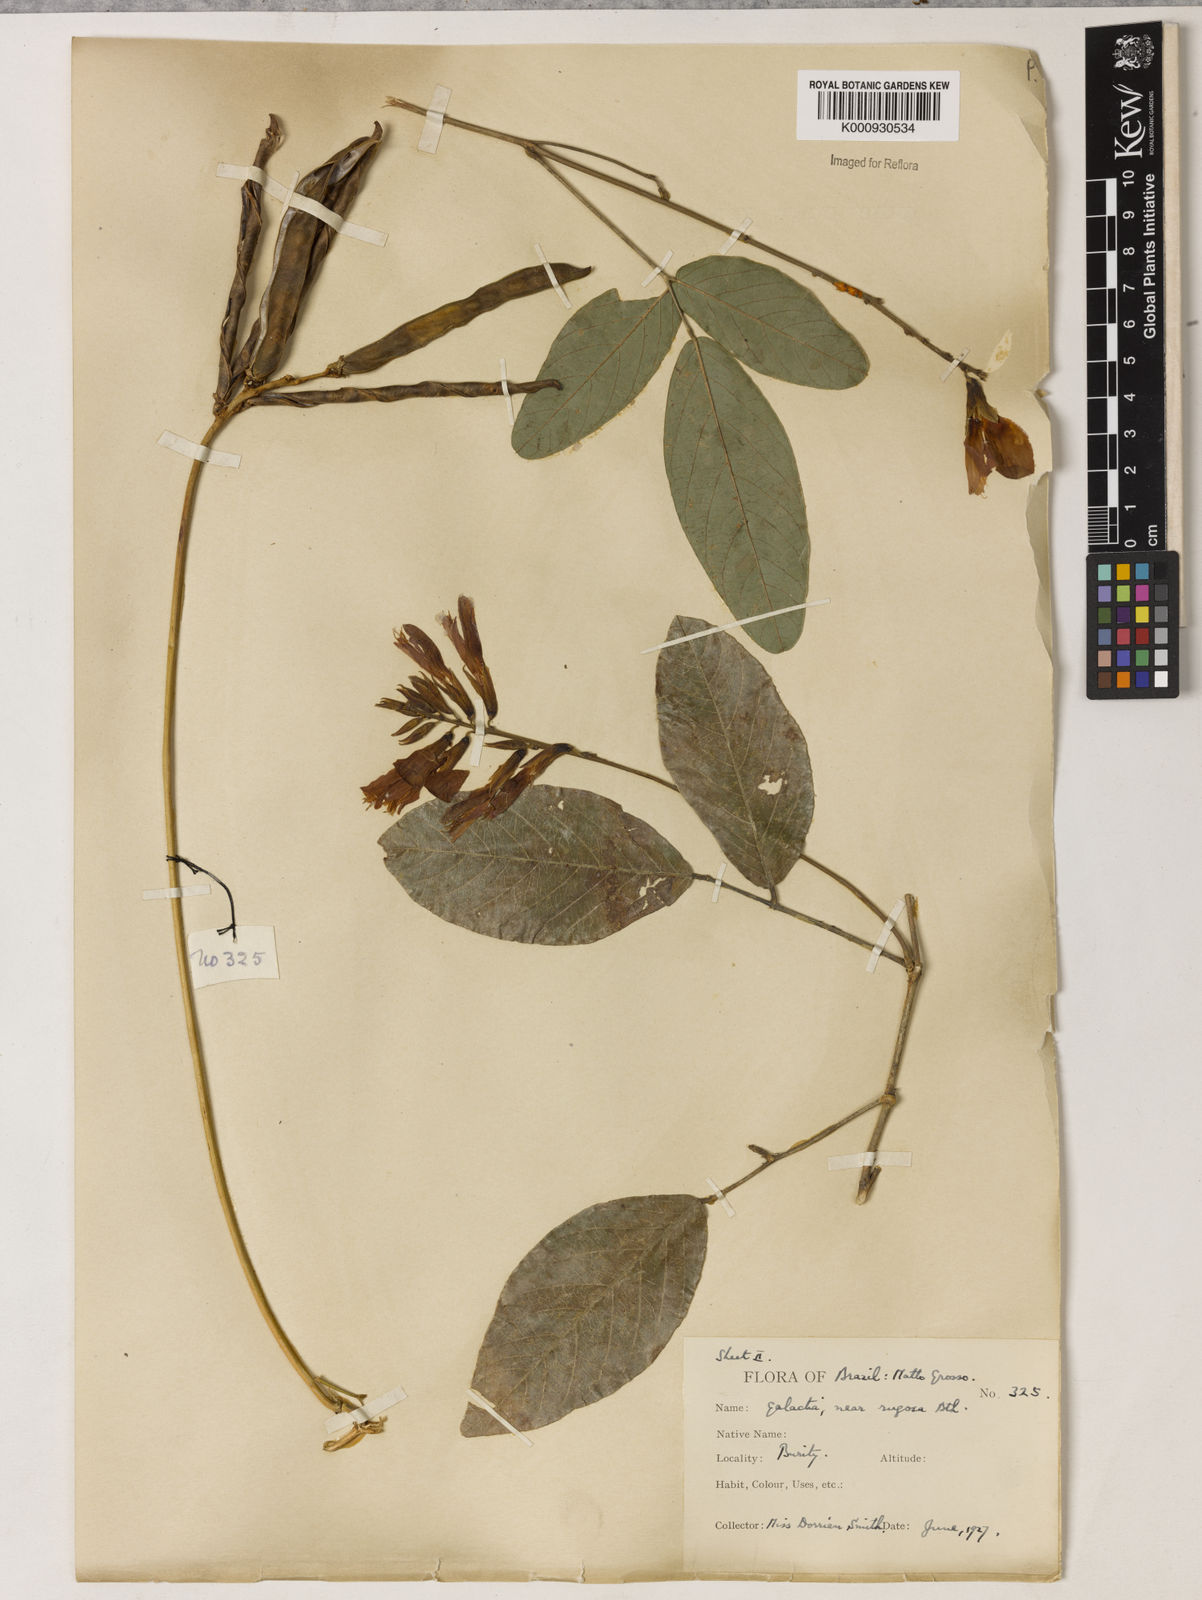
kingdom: Plantae
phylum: Tracheophyta
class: Magnoliopsida
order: Fabales
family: Fabaceae
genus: Galactia
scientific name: Galactia
